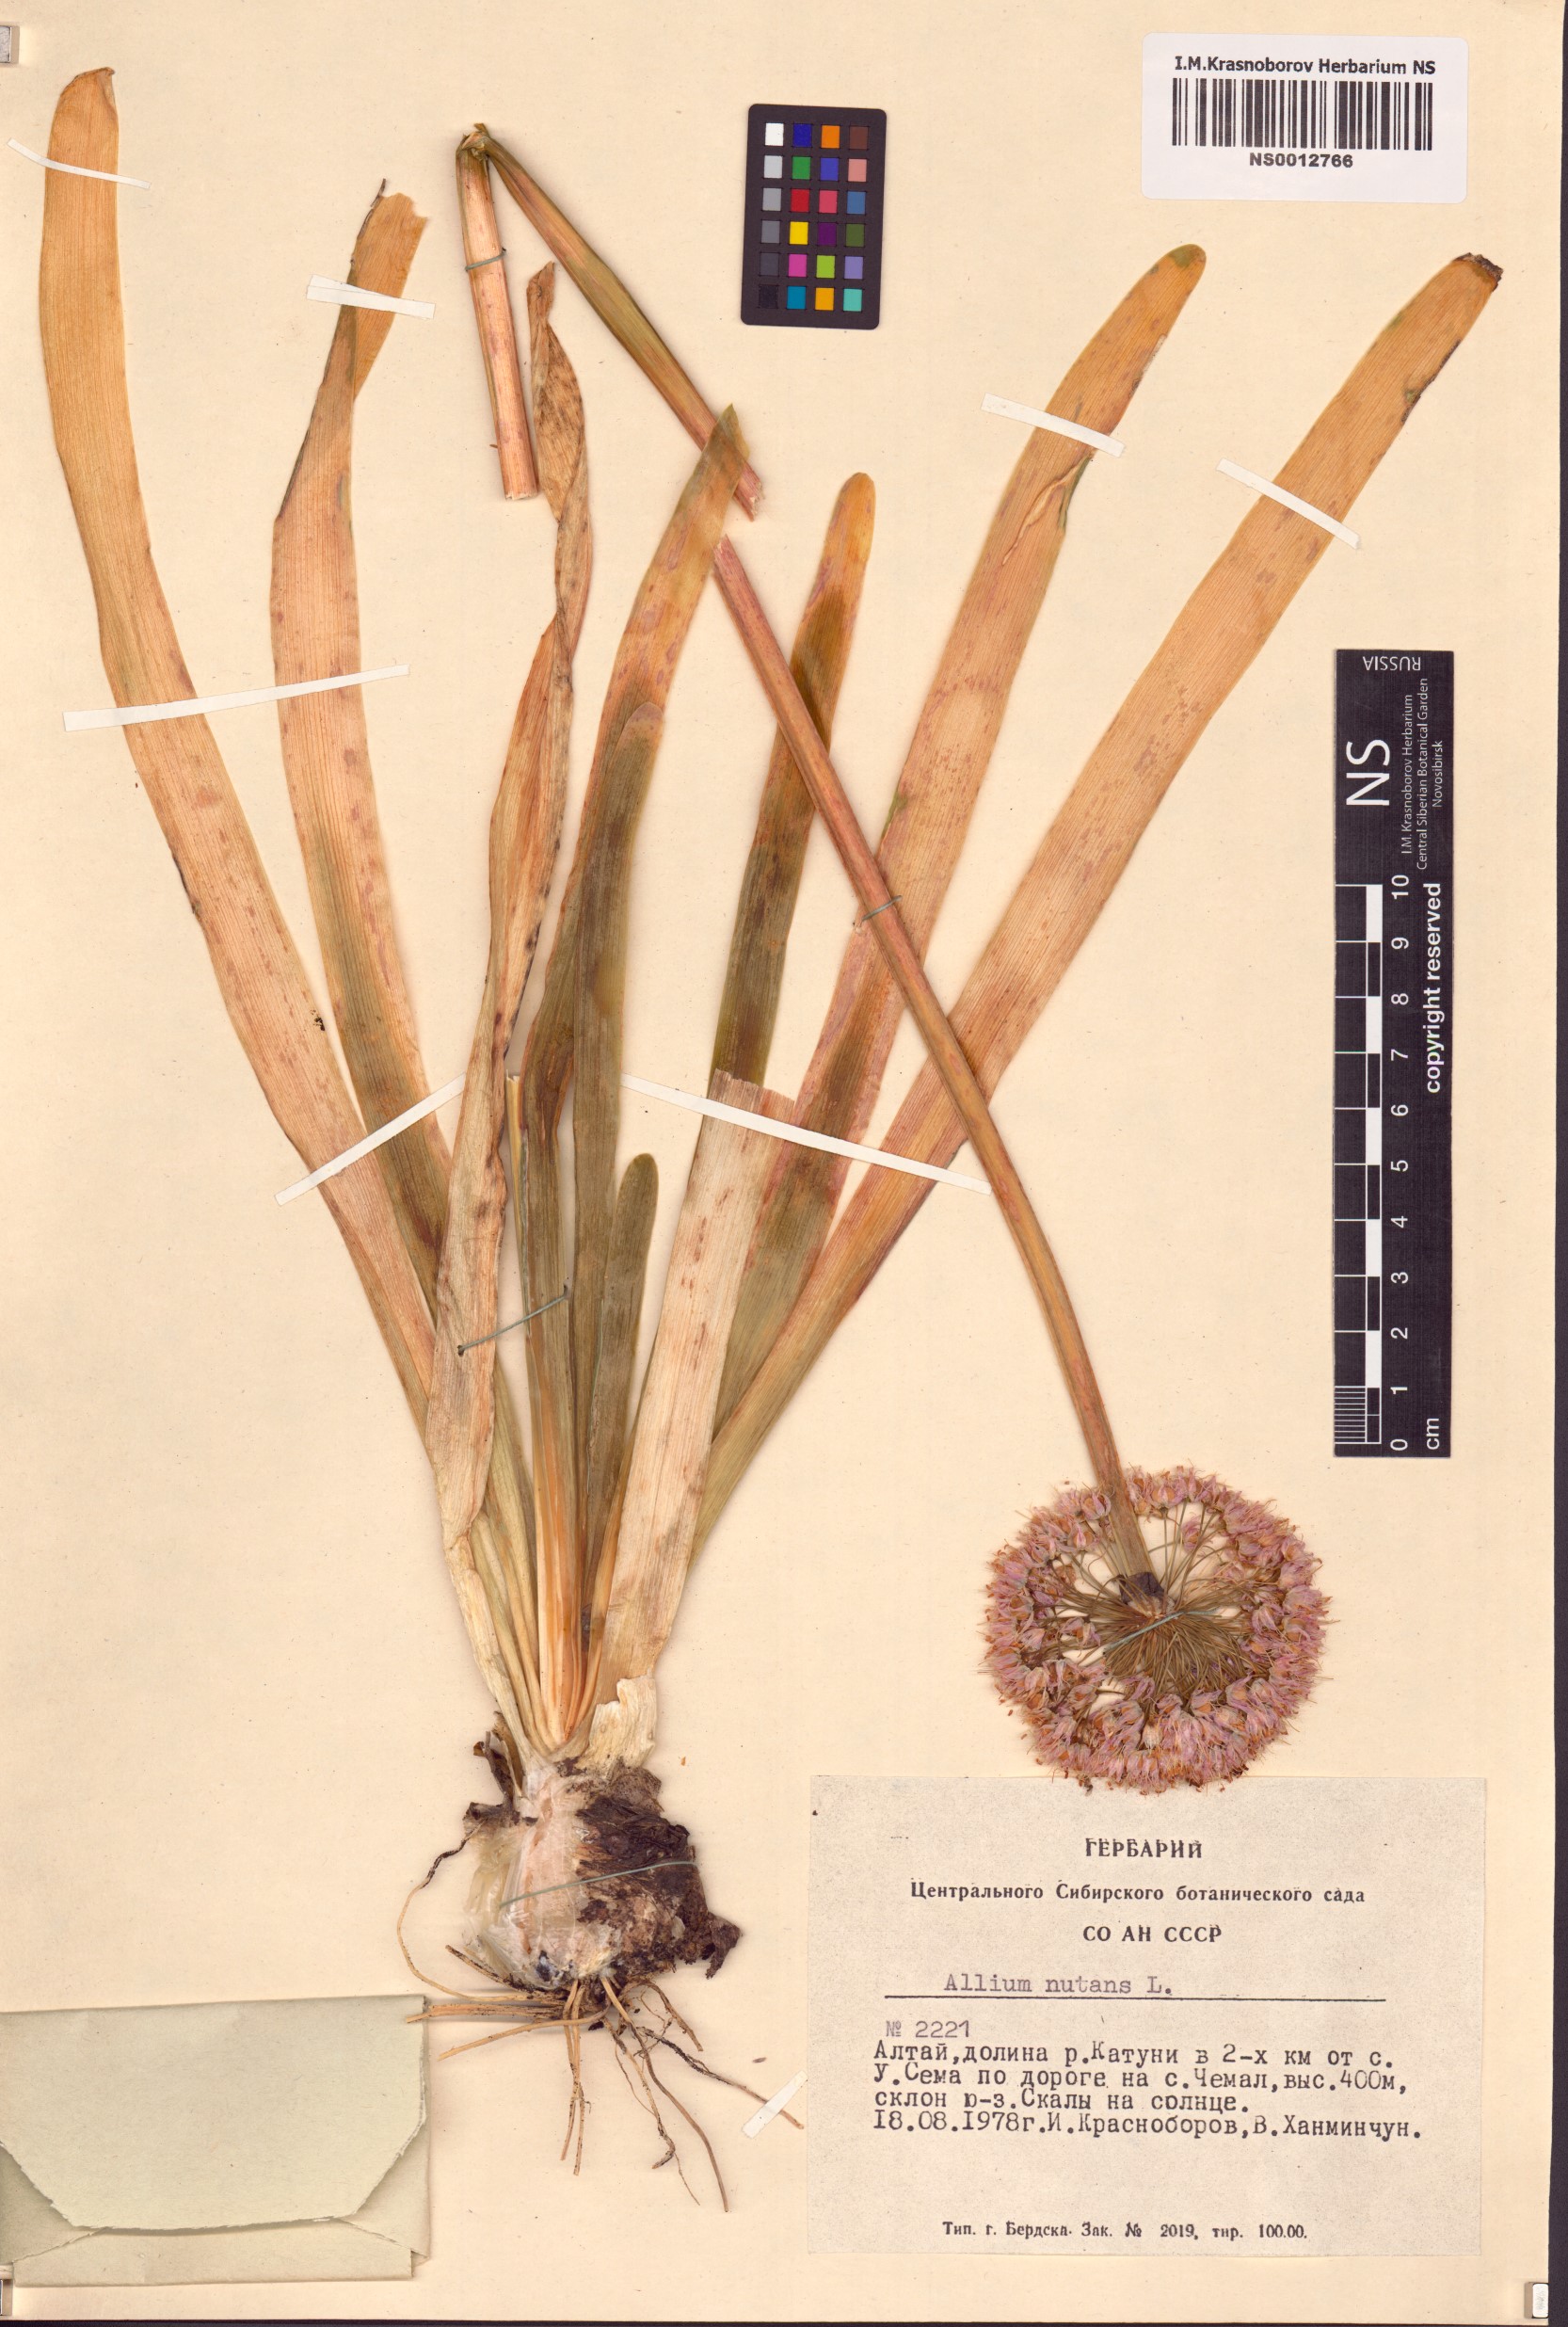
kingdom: Plantae
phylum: Tracheophyta
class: Liliopsida
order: Asparagales
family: Amaryllidaceae
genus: Allium
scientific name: Allium nutans
